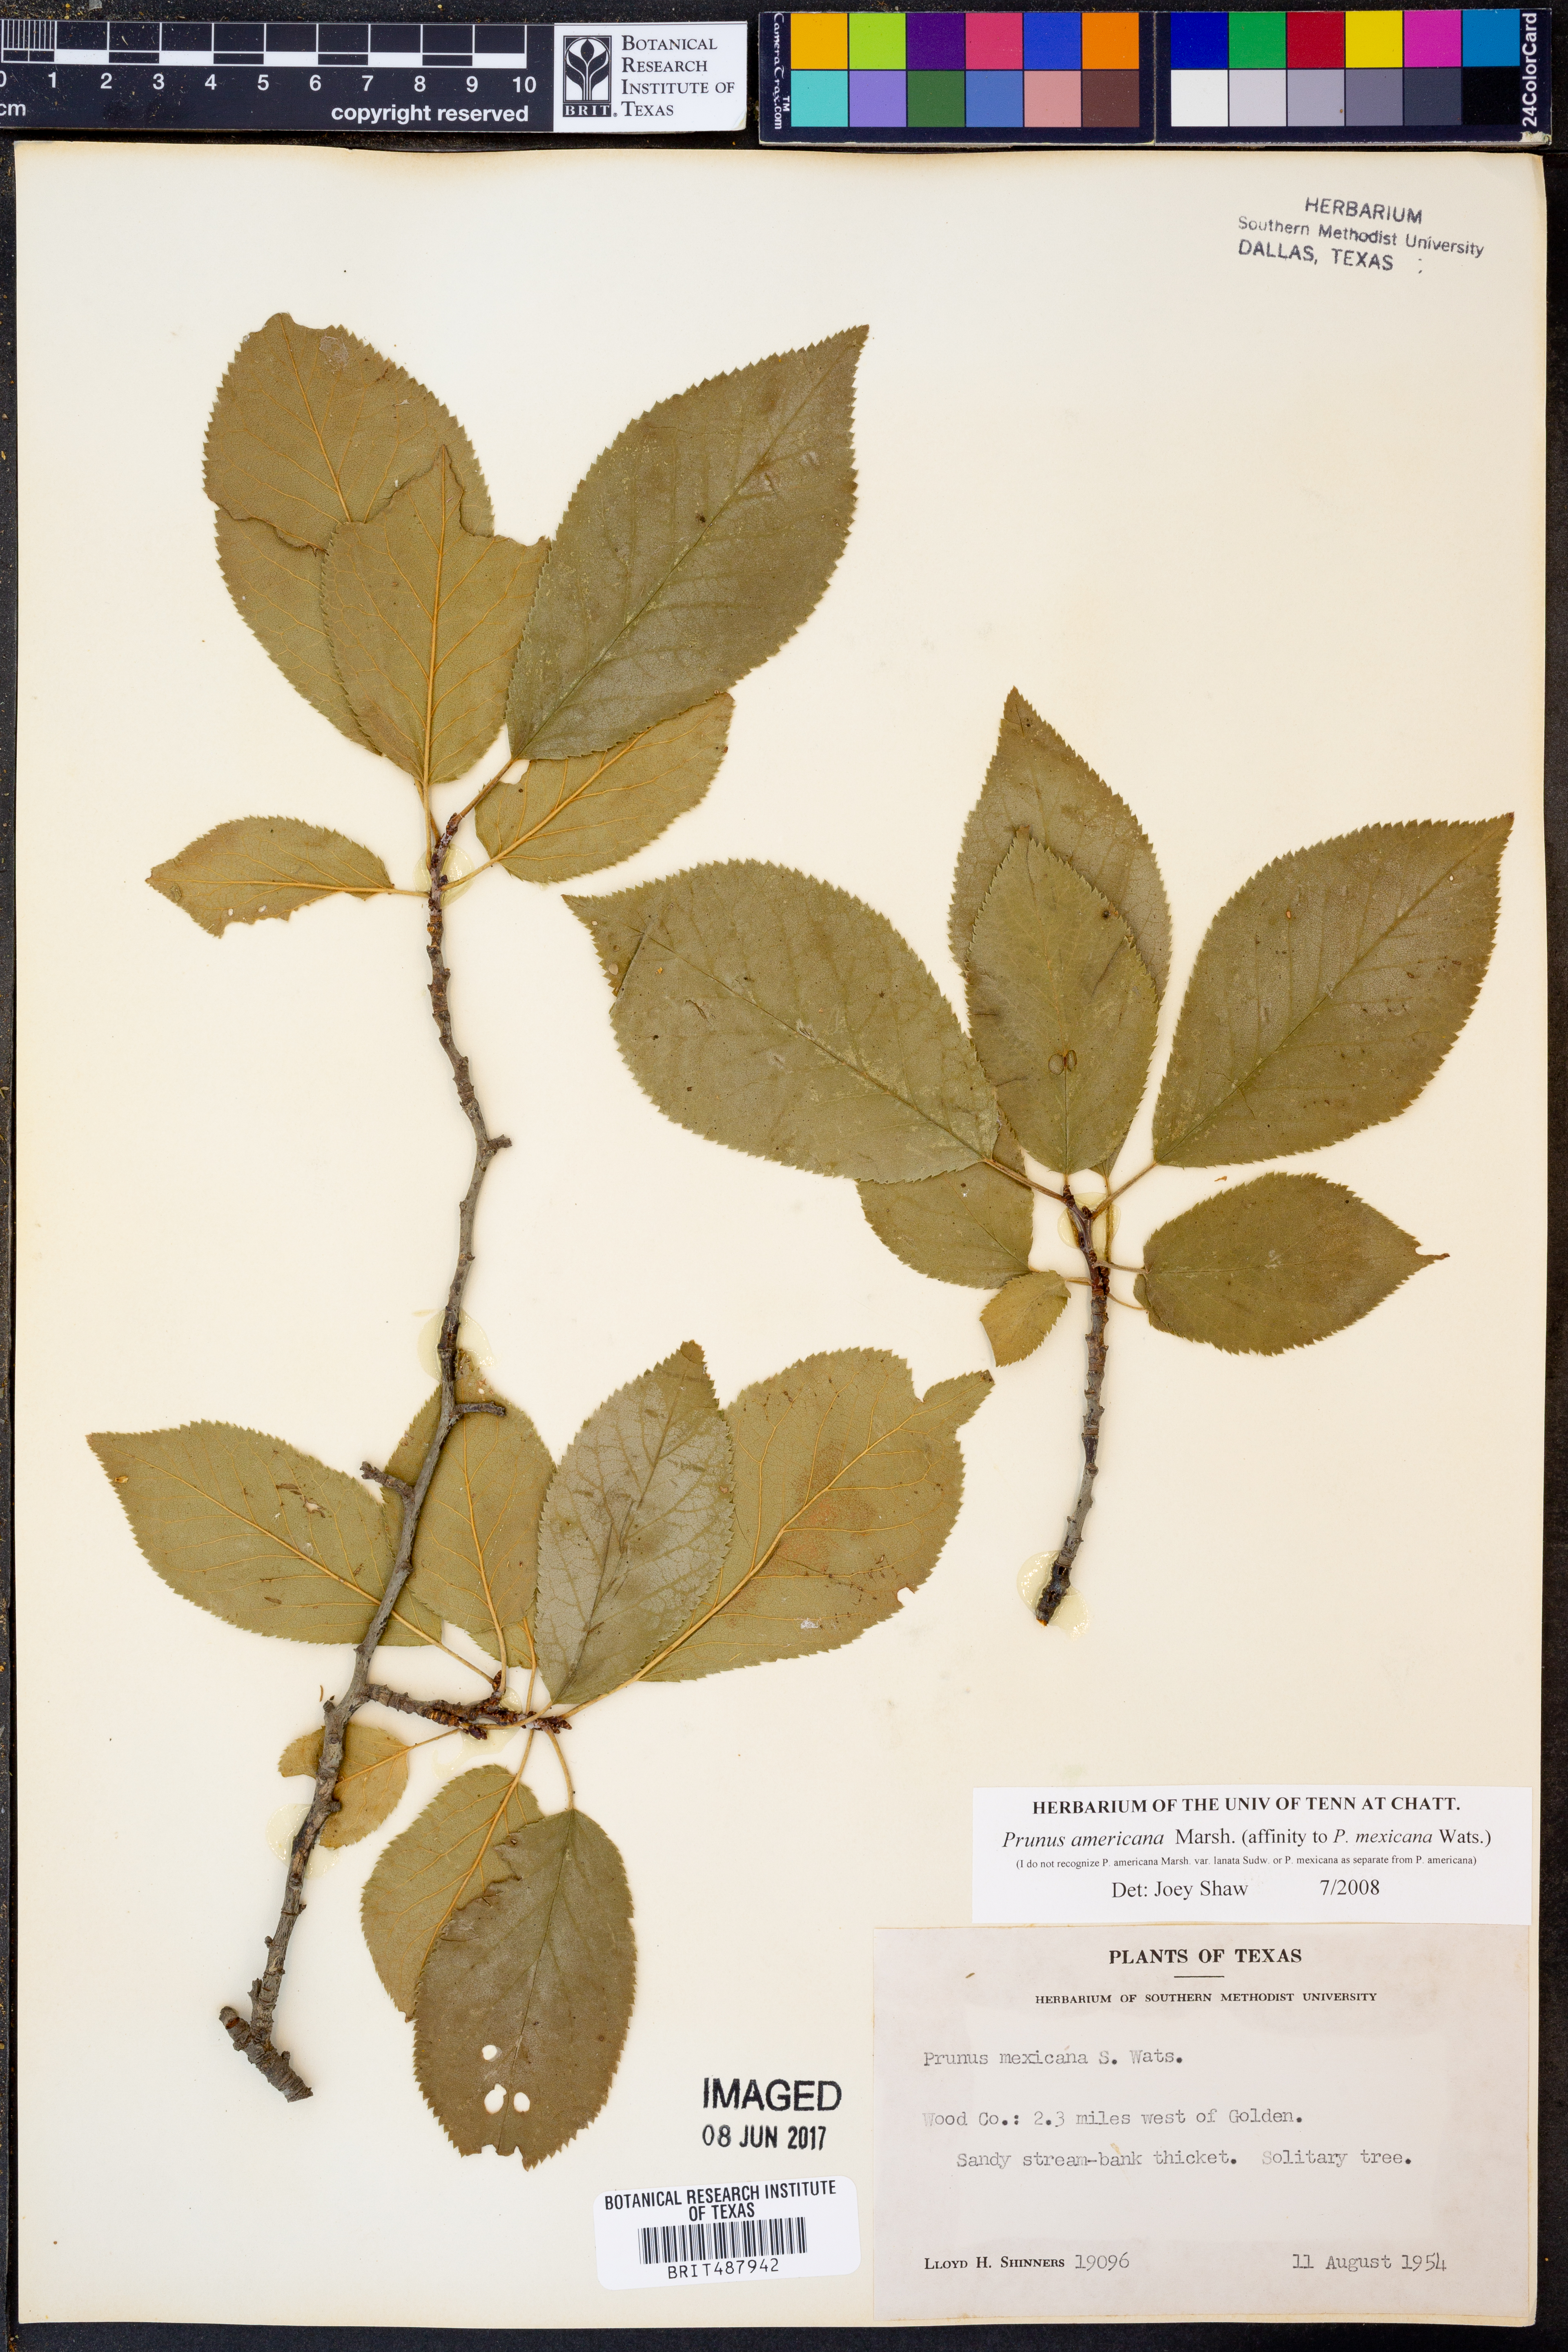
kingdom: Plantae
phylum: Tracheophyta
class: Magnoliopsida
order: Rosales
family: Rosaceae
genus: Prunus
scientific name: Prunus americana
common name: American plum
